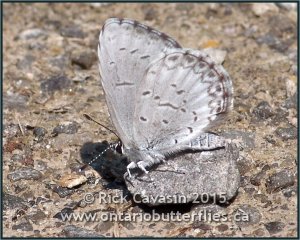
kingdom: Animalia
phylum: Arthropoda
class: Insecta
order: Lepidoptera
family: Lycaenidae
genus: Cyaniris
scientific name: Cyaniris neglecta
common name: Summer Azure
